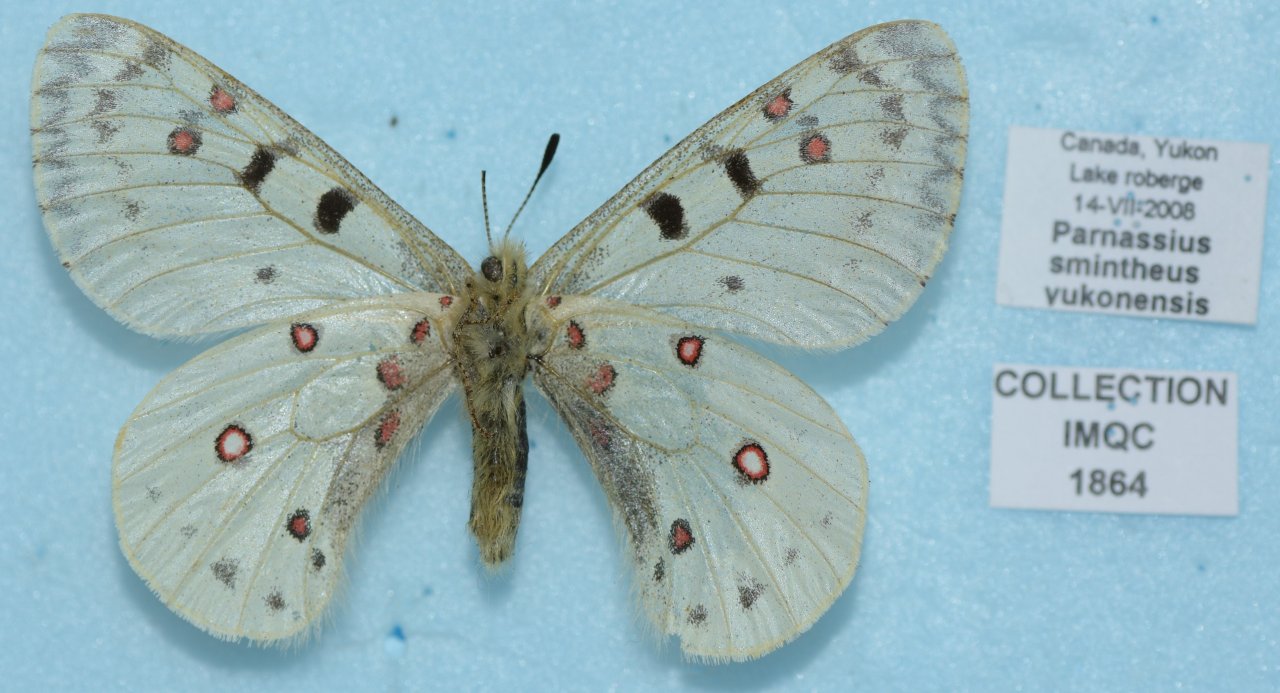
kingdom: Animalia
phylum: Arthropoda
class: Insecta
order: Lepidoptera
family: Papilionidae
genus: Parnassius
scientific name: Parnassius smintheus
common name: Rocky Mountain Parnassian
